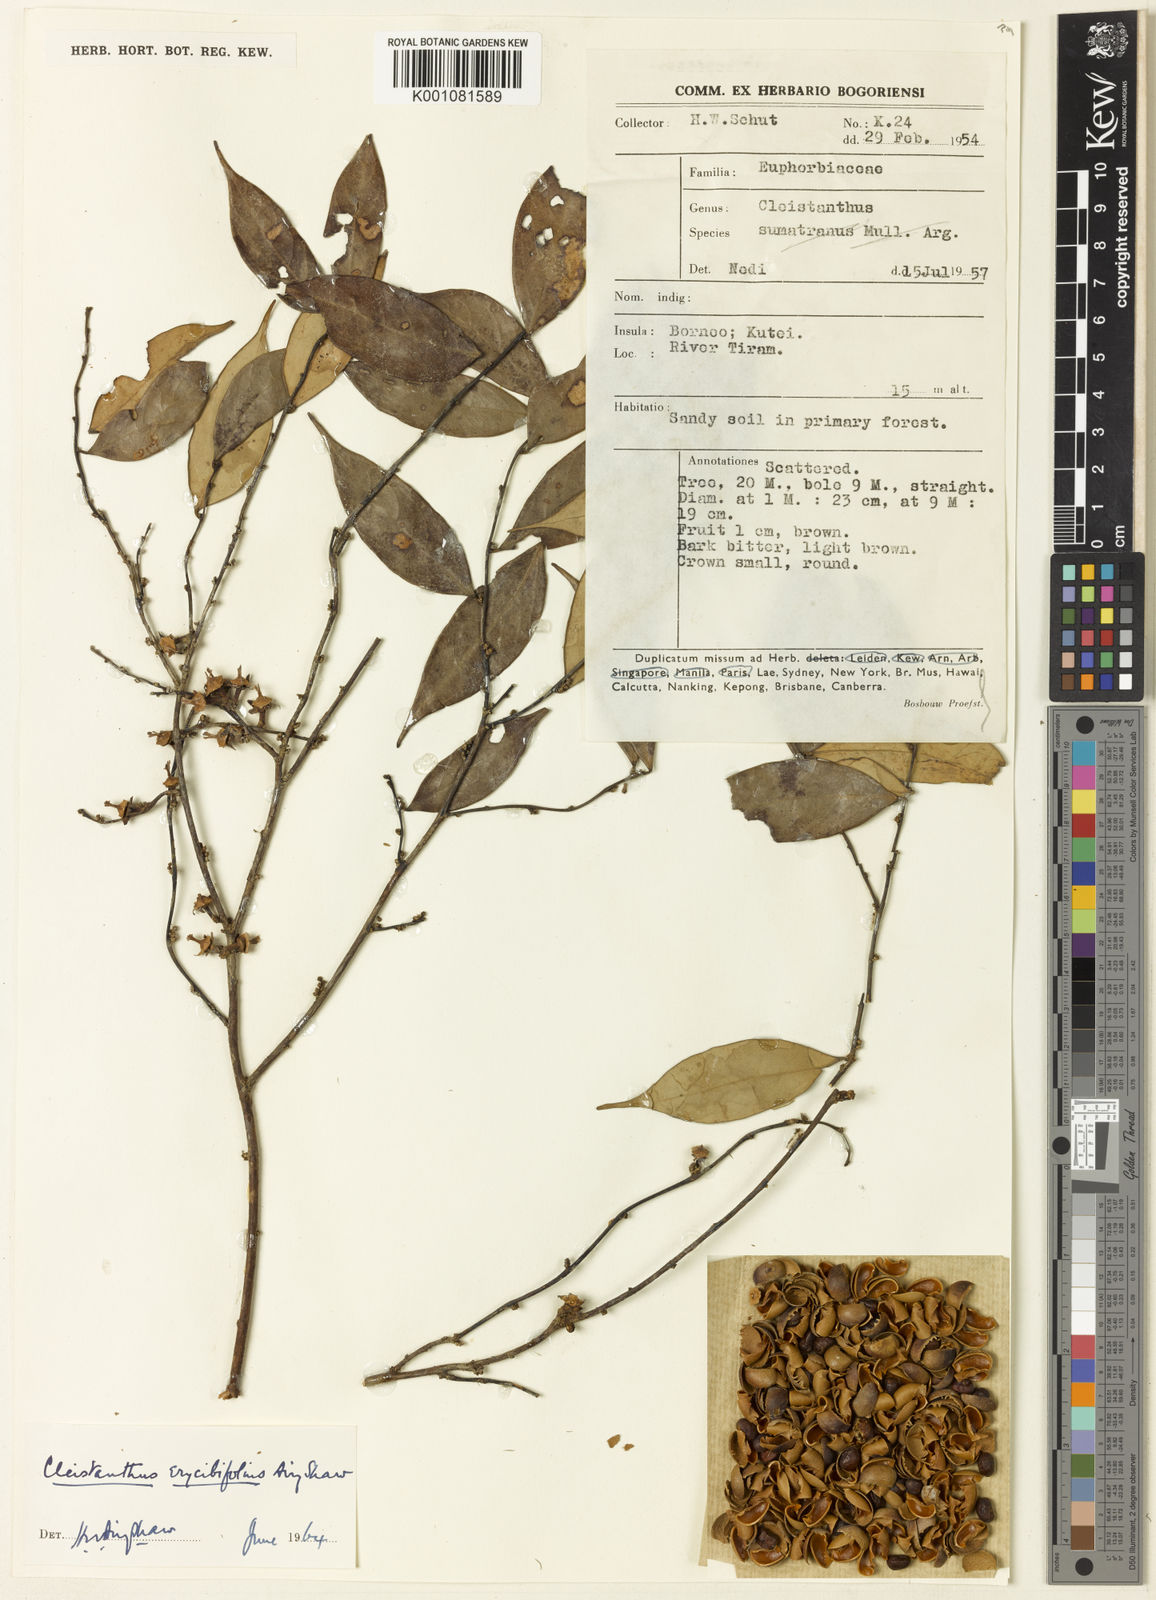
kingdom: Plantae
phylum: Tracheophyta
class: Magnoliopsida
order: Malpighiales
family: Phyllanthaceae
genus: Cleistanthus
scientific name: Cleistanthus erycibifolius
